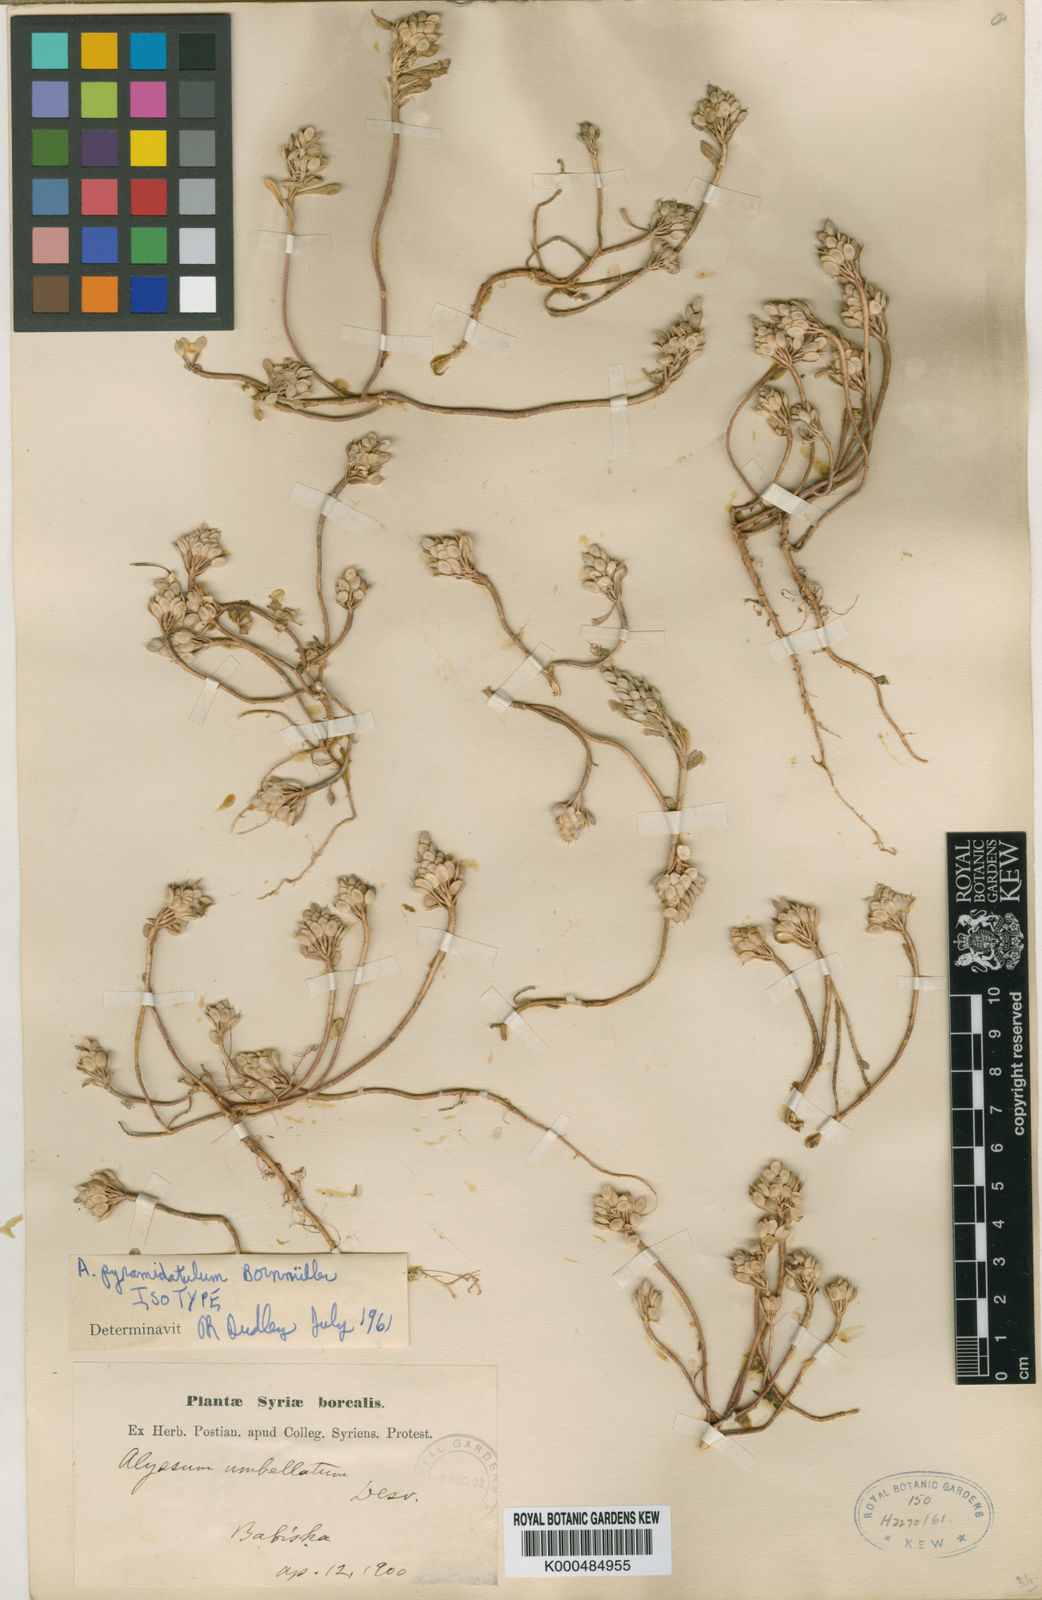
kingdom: Plantae
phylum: Tracheophyta
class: Magnoliopsida
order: Brassicales
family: Brassicaceae
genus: Alyssum
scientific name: Alyssum szovitsianum
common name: Szowits' madwort
